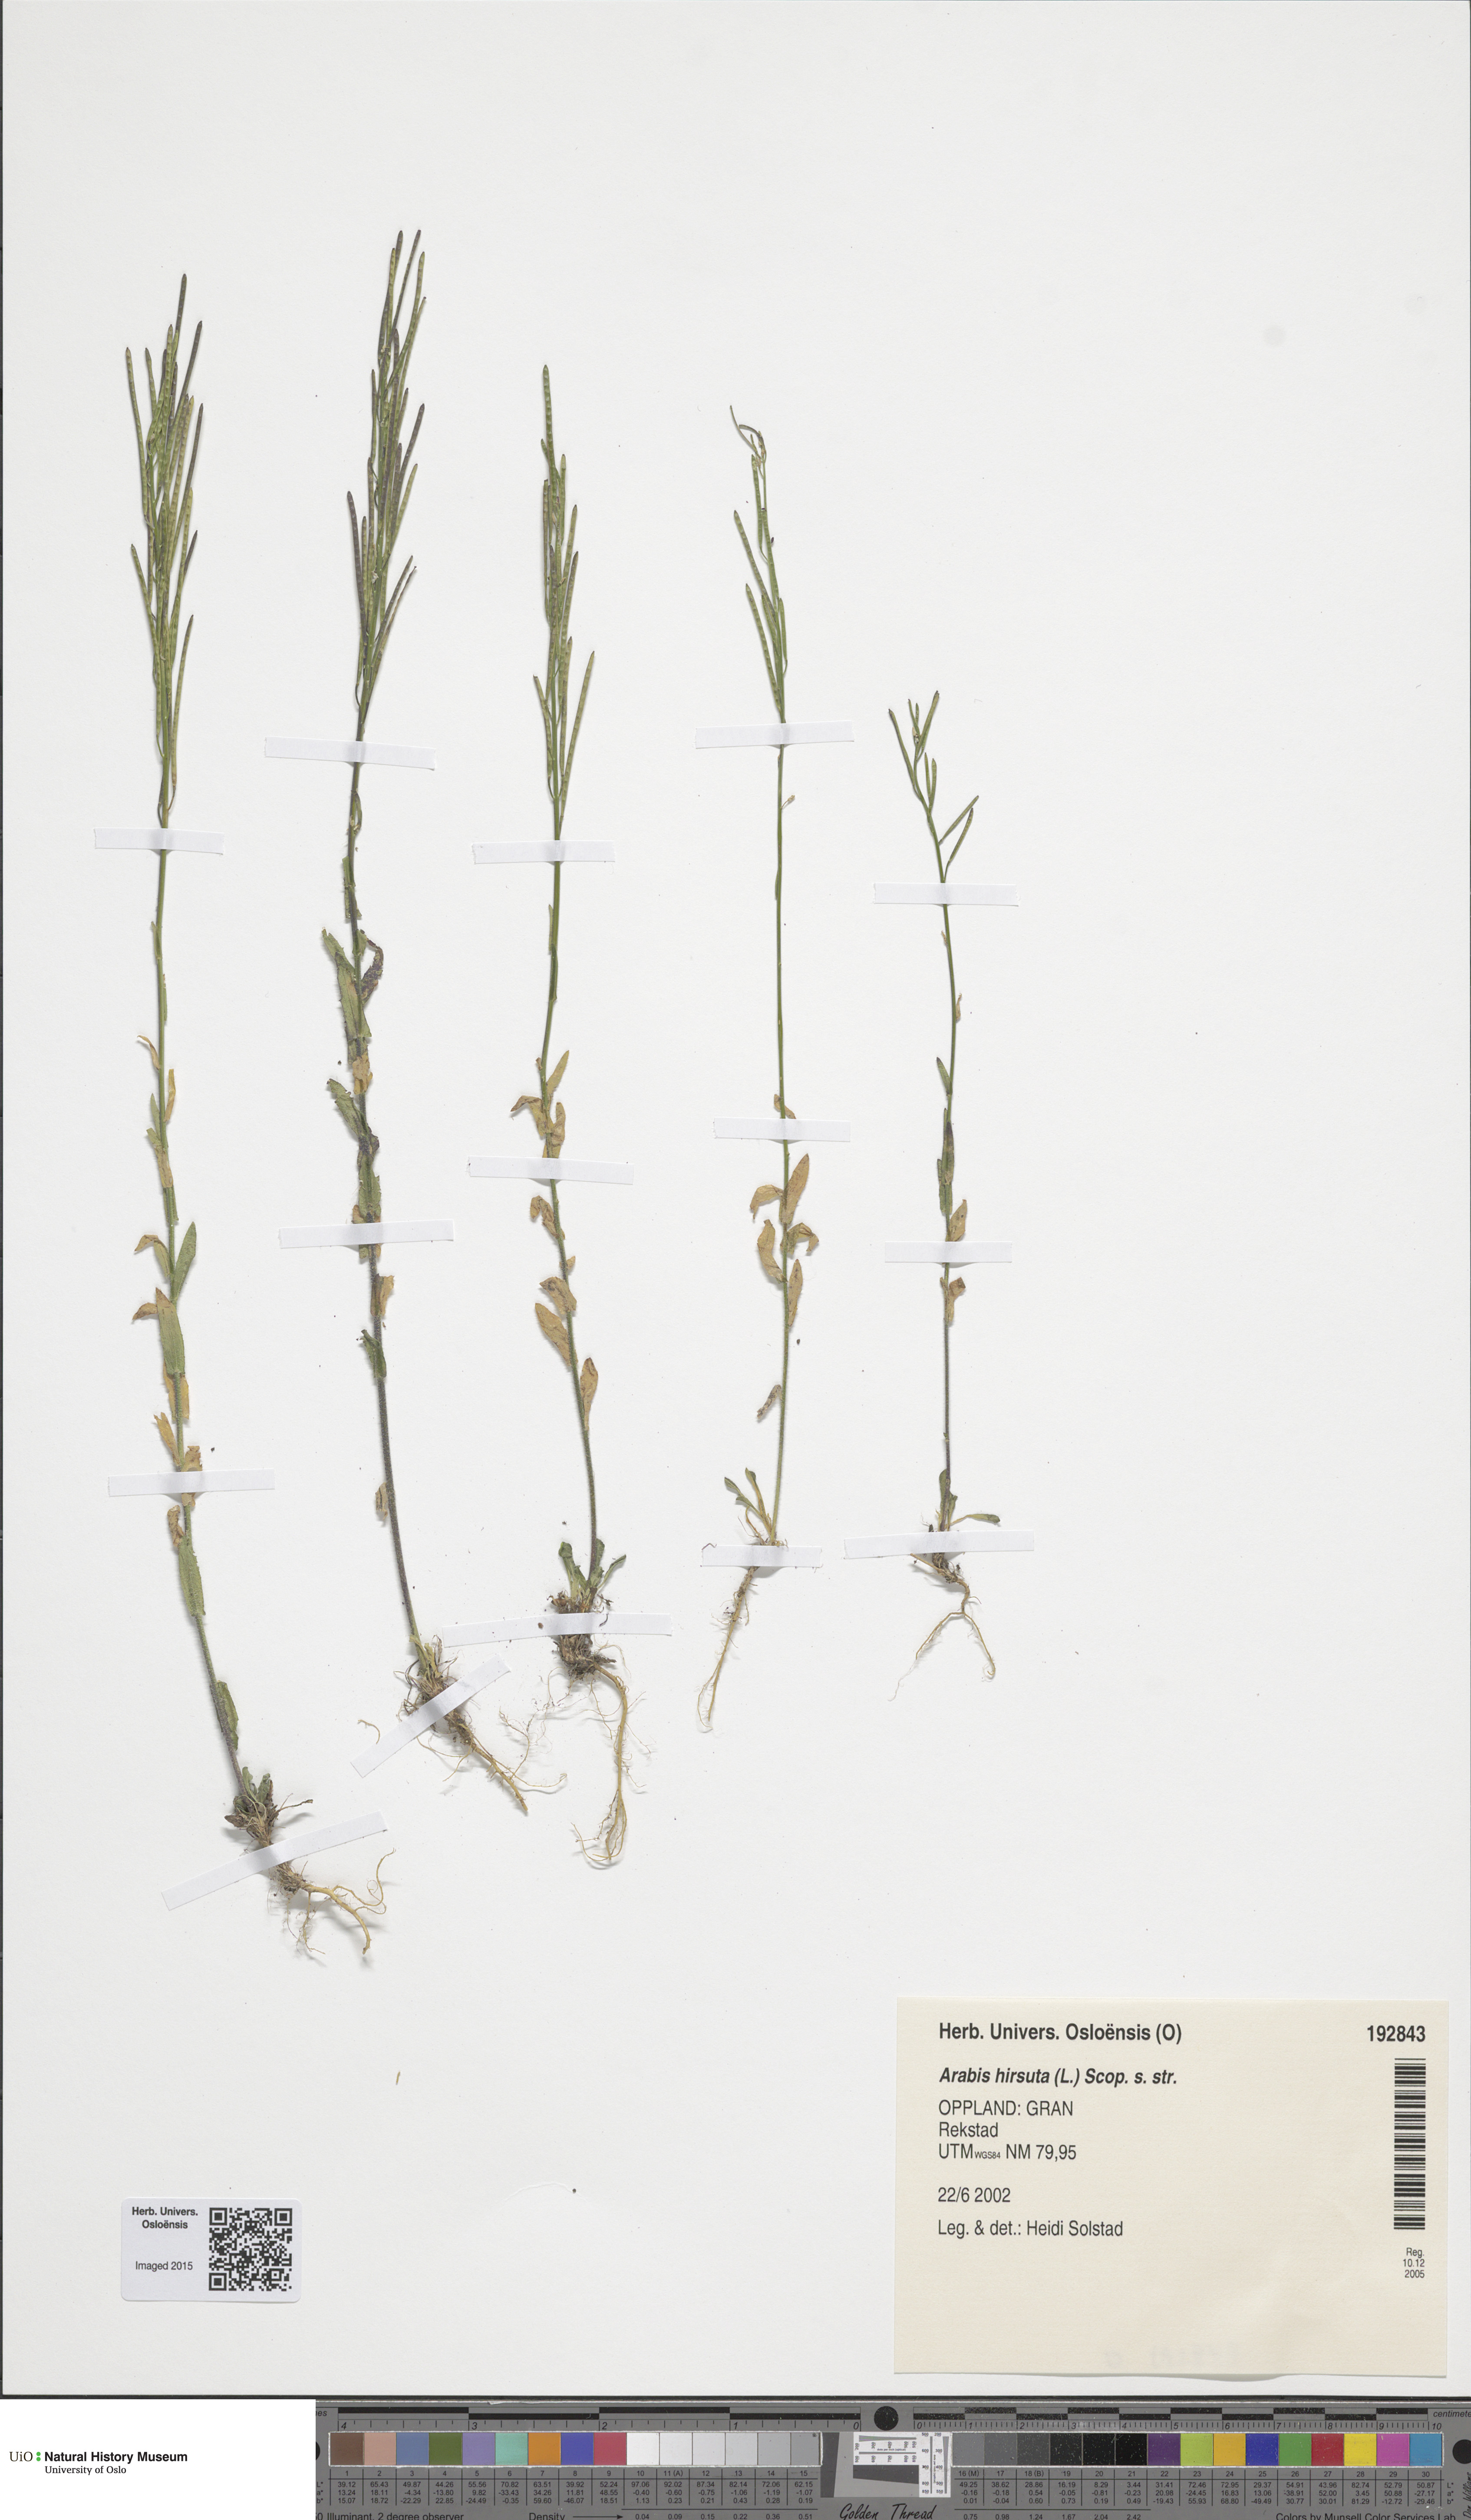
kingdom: Plantae
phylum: Tracheophyta
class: Magnoliopsida
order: Brassicales
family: Brassicaceae
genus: Arabis
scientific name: Arabis hirsuta
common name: Hairy rock-cress
